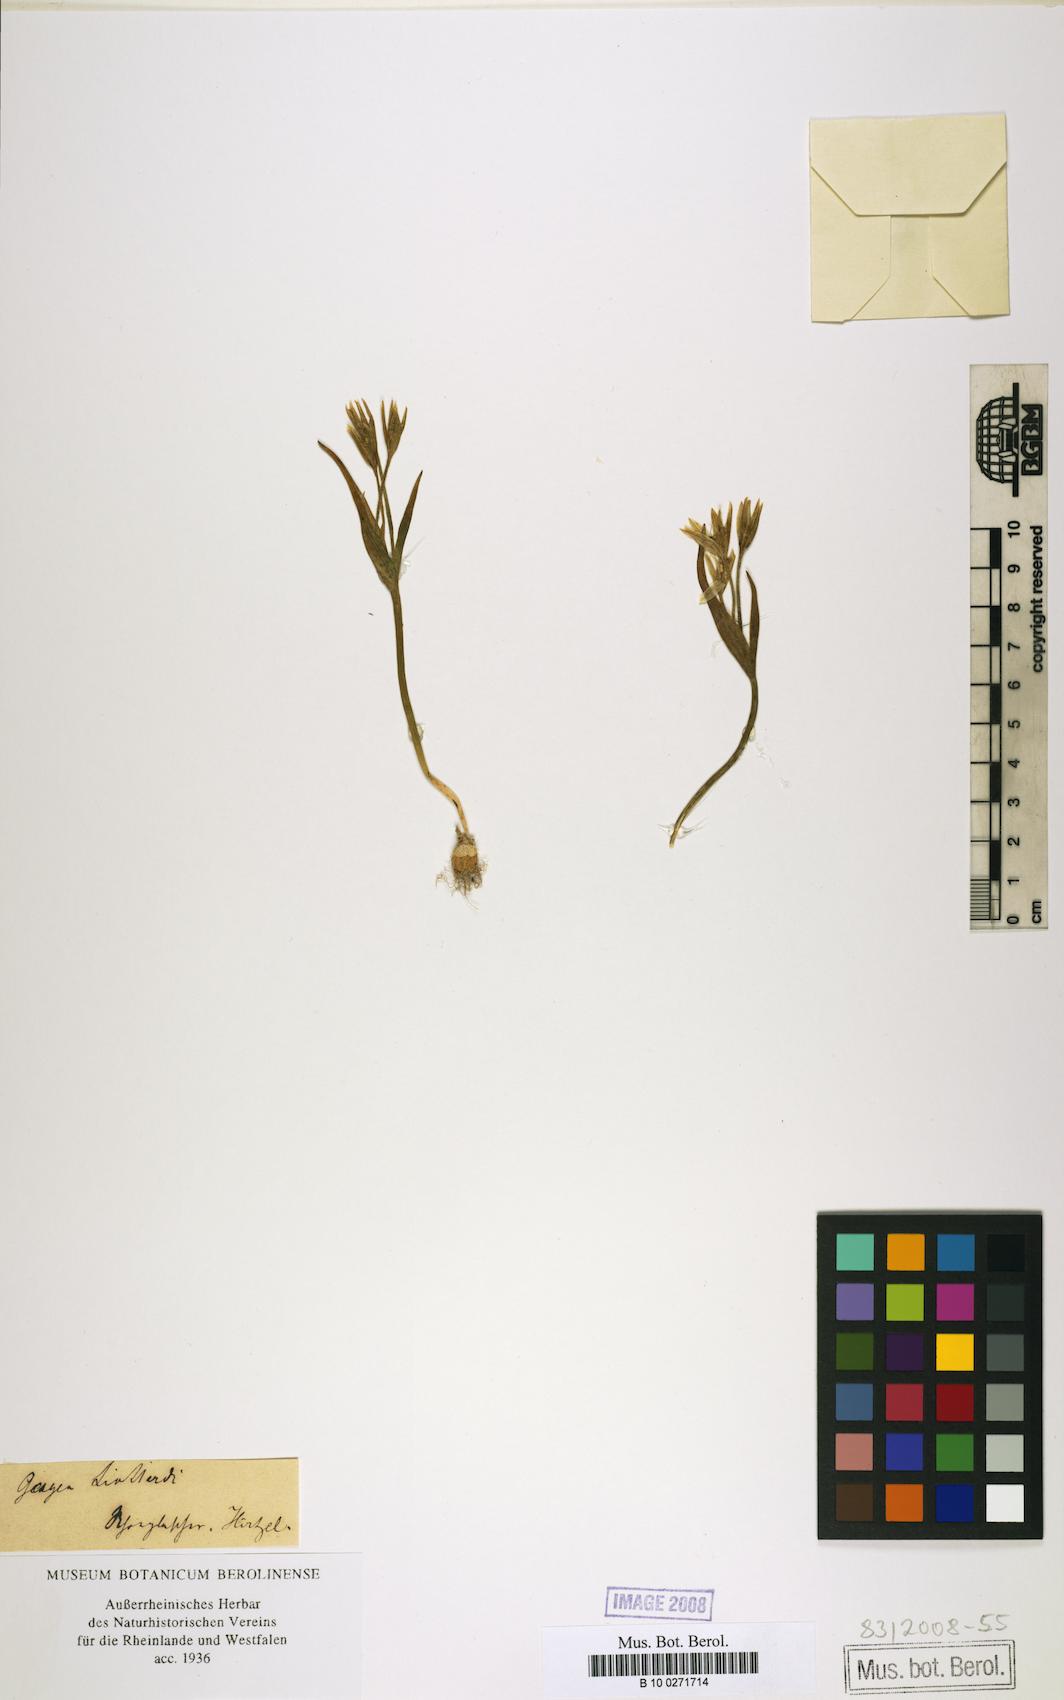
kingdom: Plantae
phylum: Tracheophyta
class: Liliopsida
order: Liliales
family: Liliaceae
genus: Gagea
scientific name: Gagea bohemica
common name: Early star-of-bethlehem
